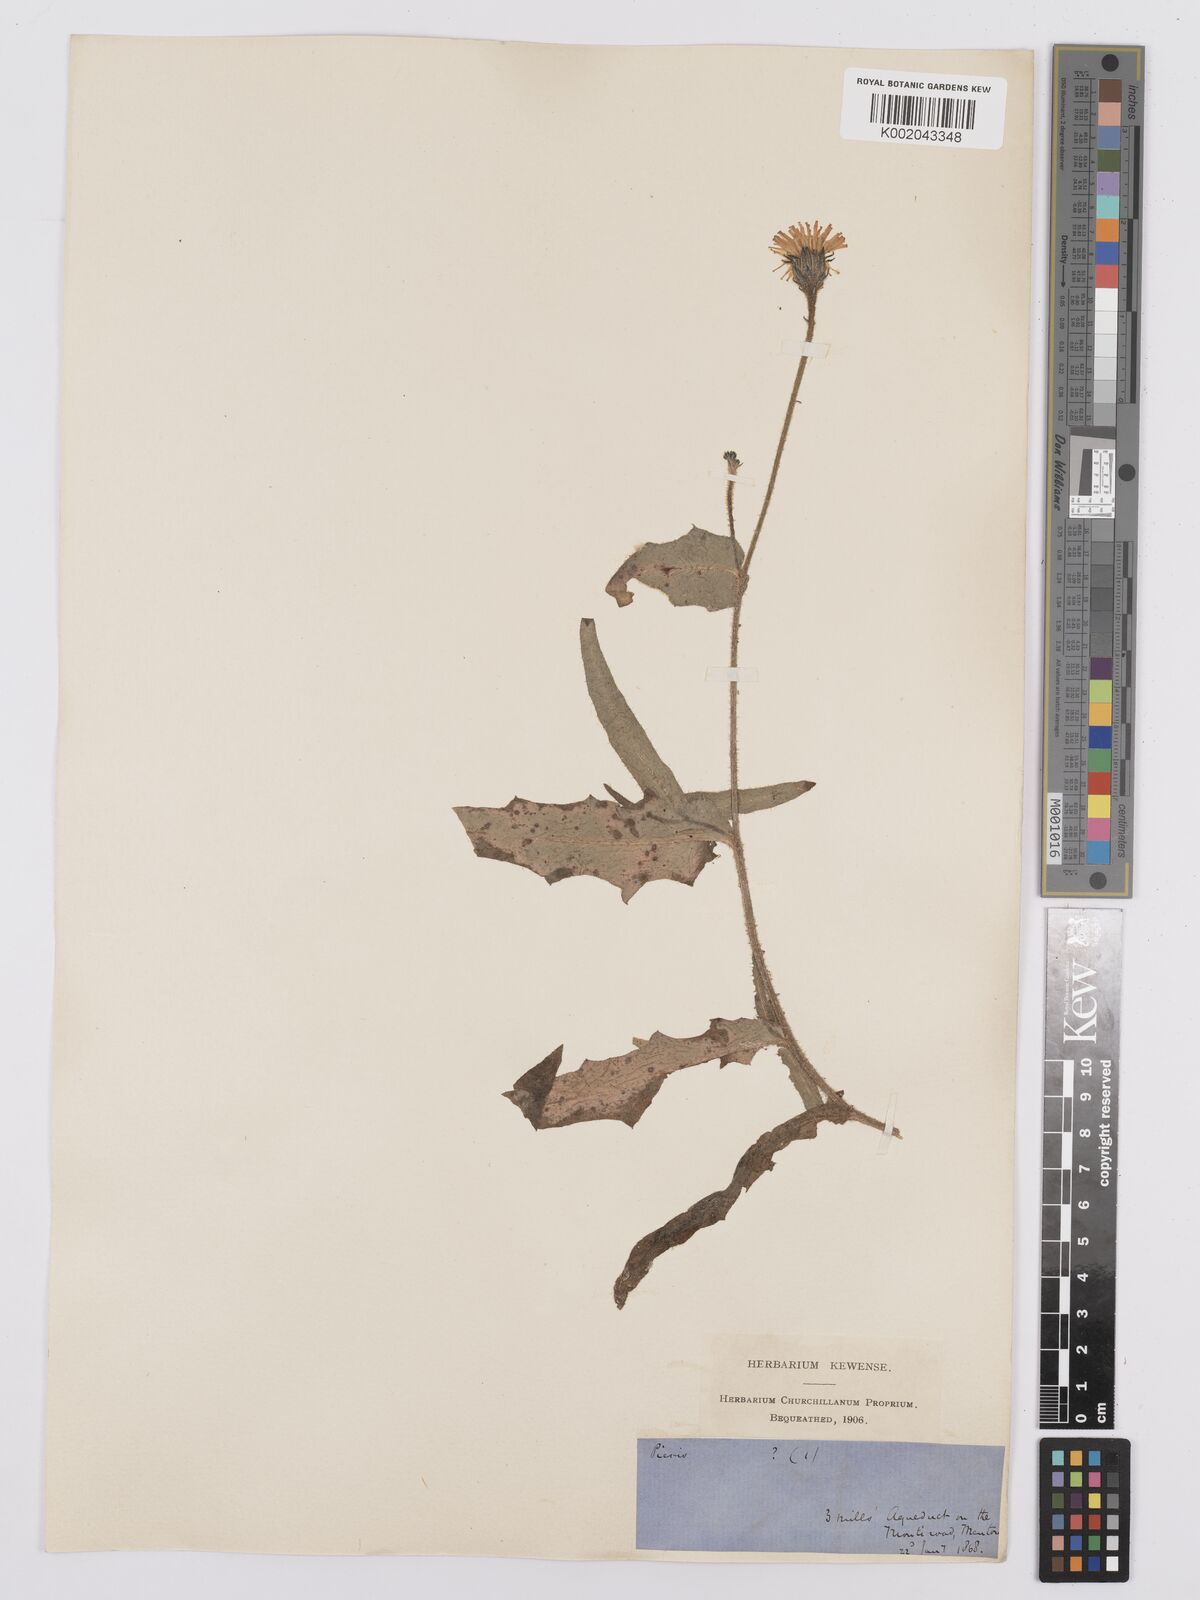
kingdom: Plantae
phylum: Tracheophyta
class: Magnoliopsida
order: Asterales
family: Asteraceae
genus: Picris
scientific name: Picris hieracioides
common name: Hawkweed oxtongue
